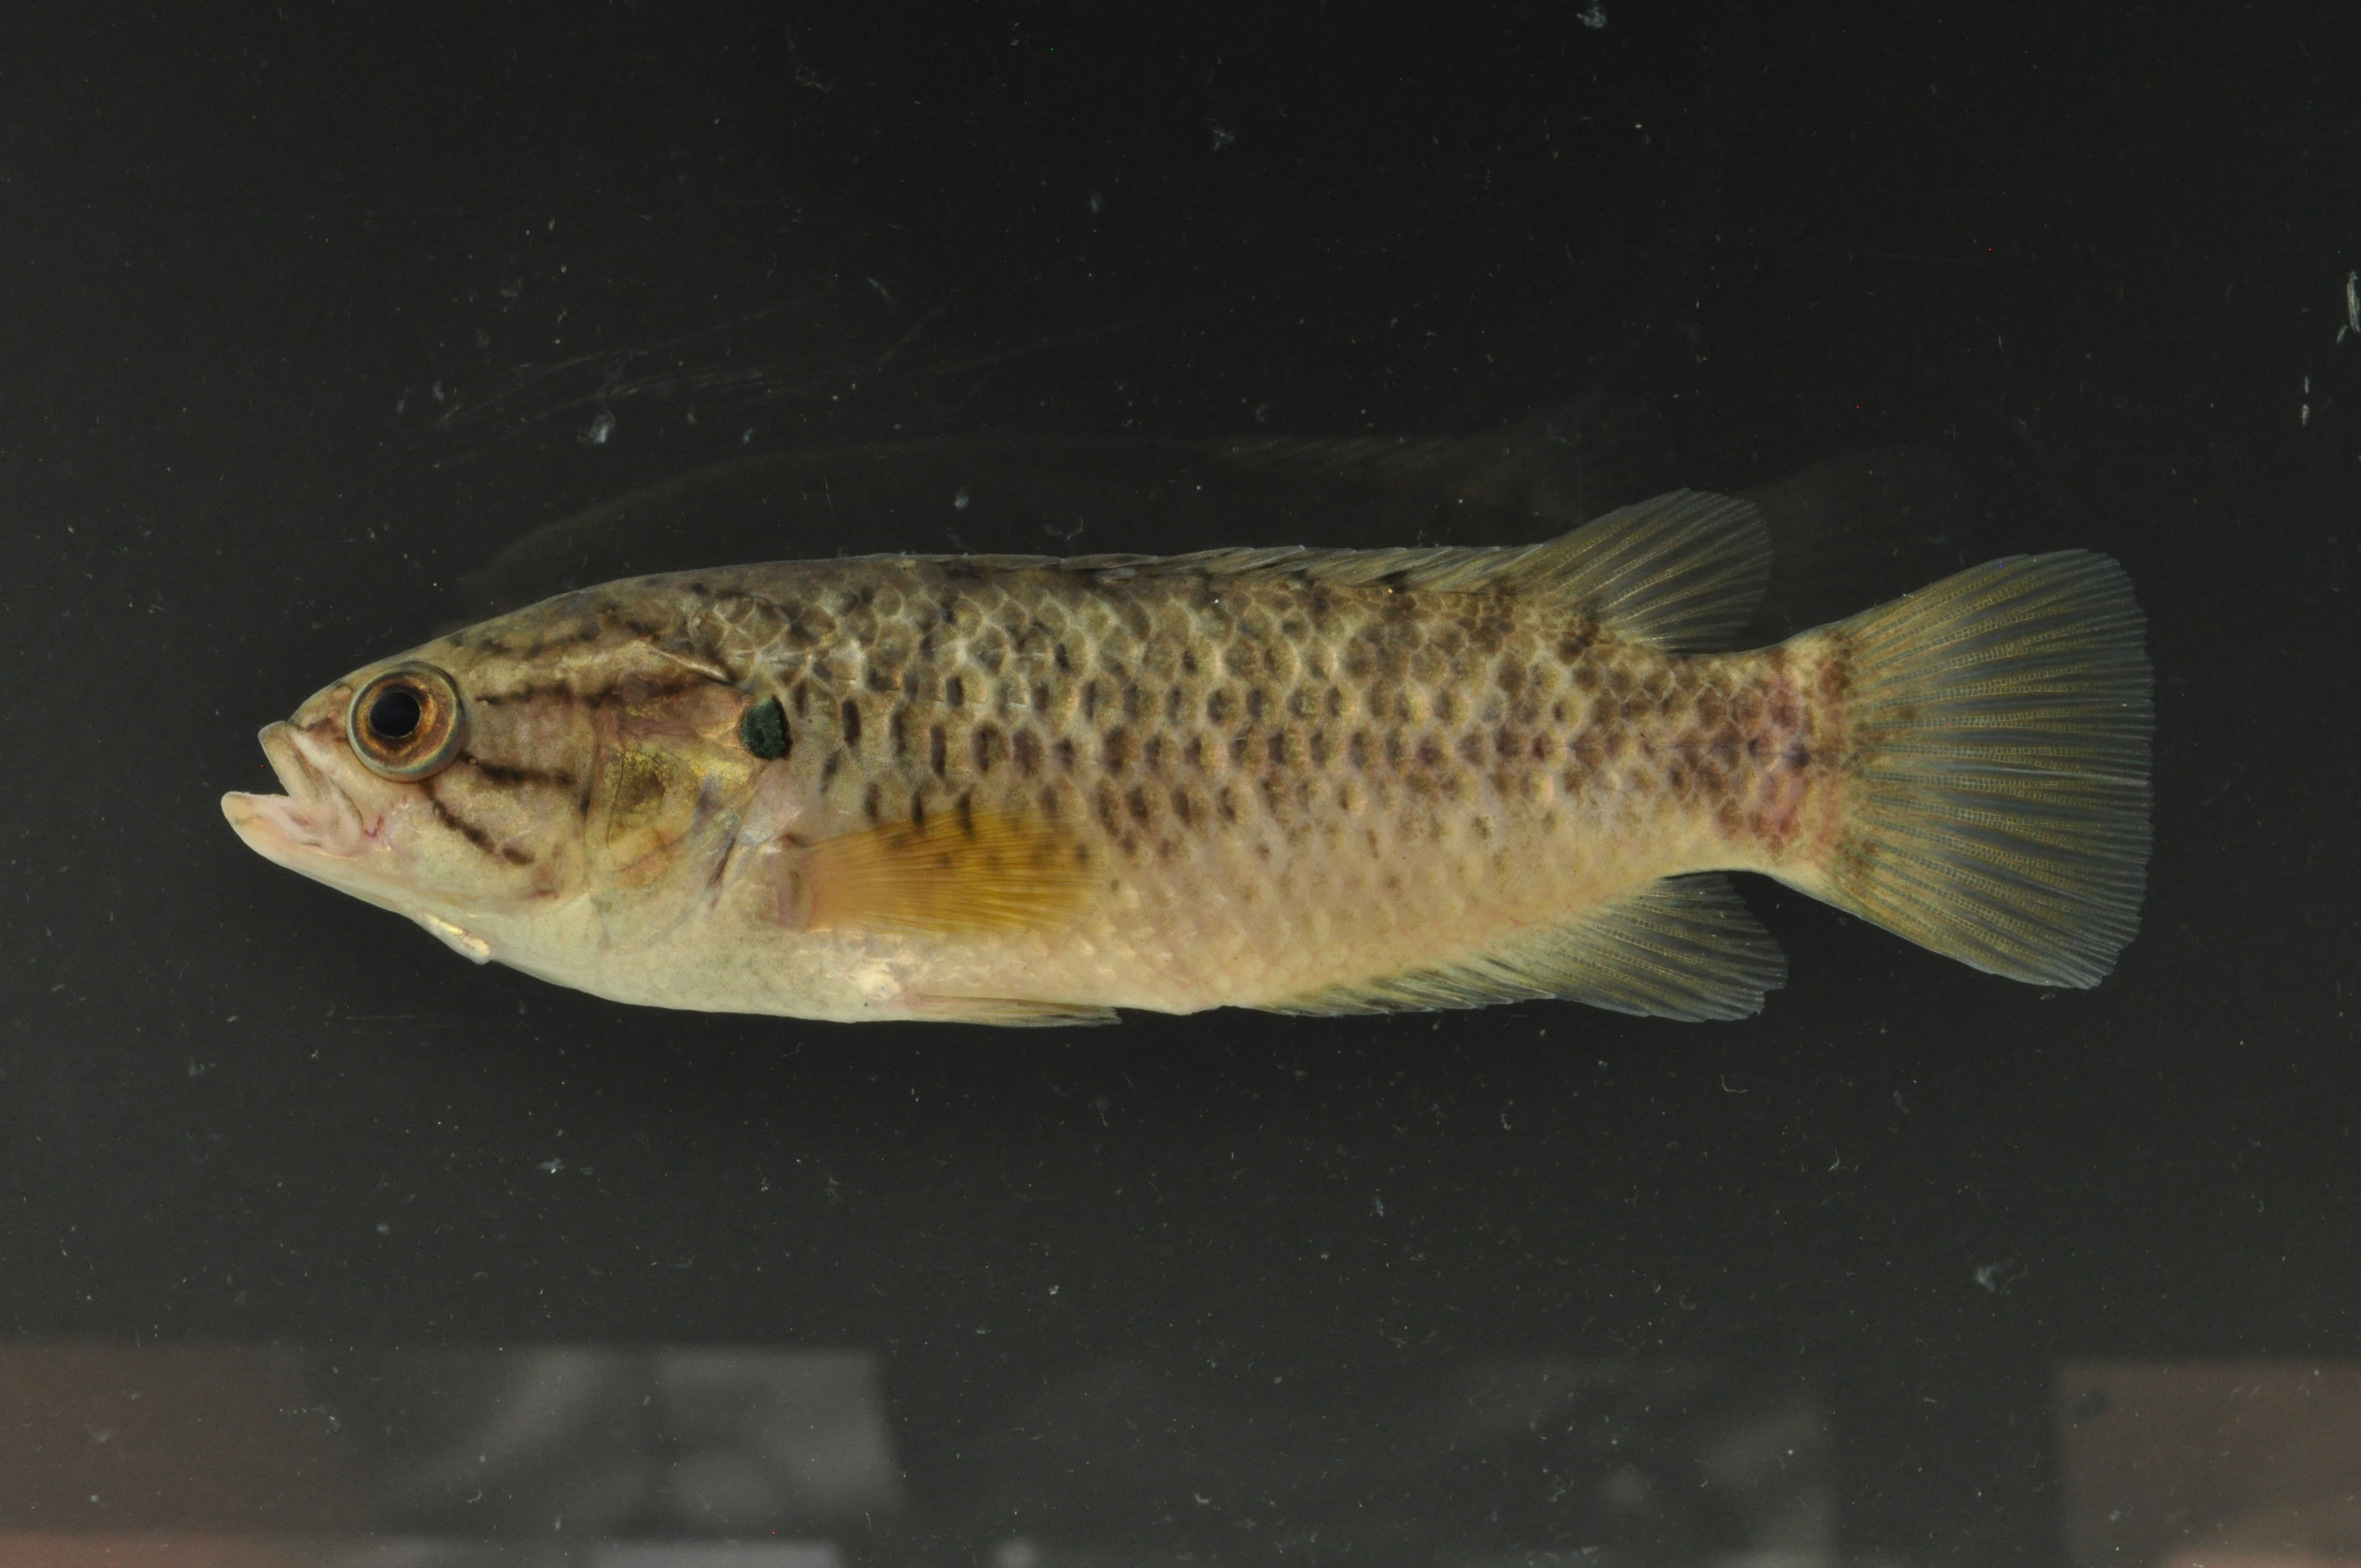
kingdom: Animalia
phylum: Chordata
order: Perciformes
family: Anabantidae
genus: Sandelia
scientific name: Sandelia capensis
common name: Cape kurper
